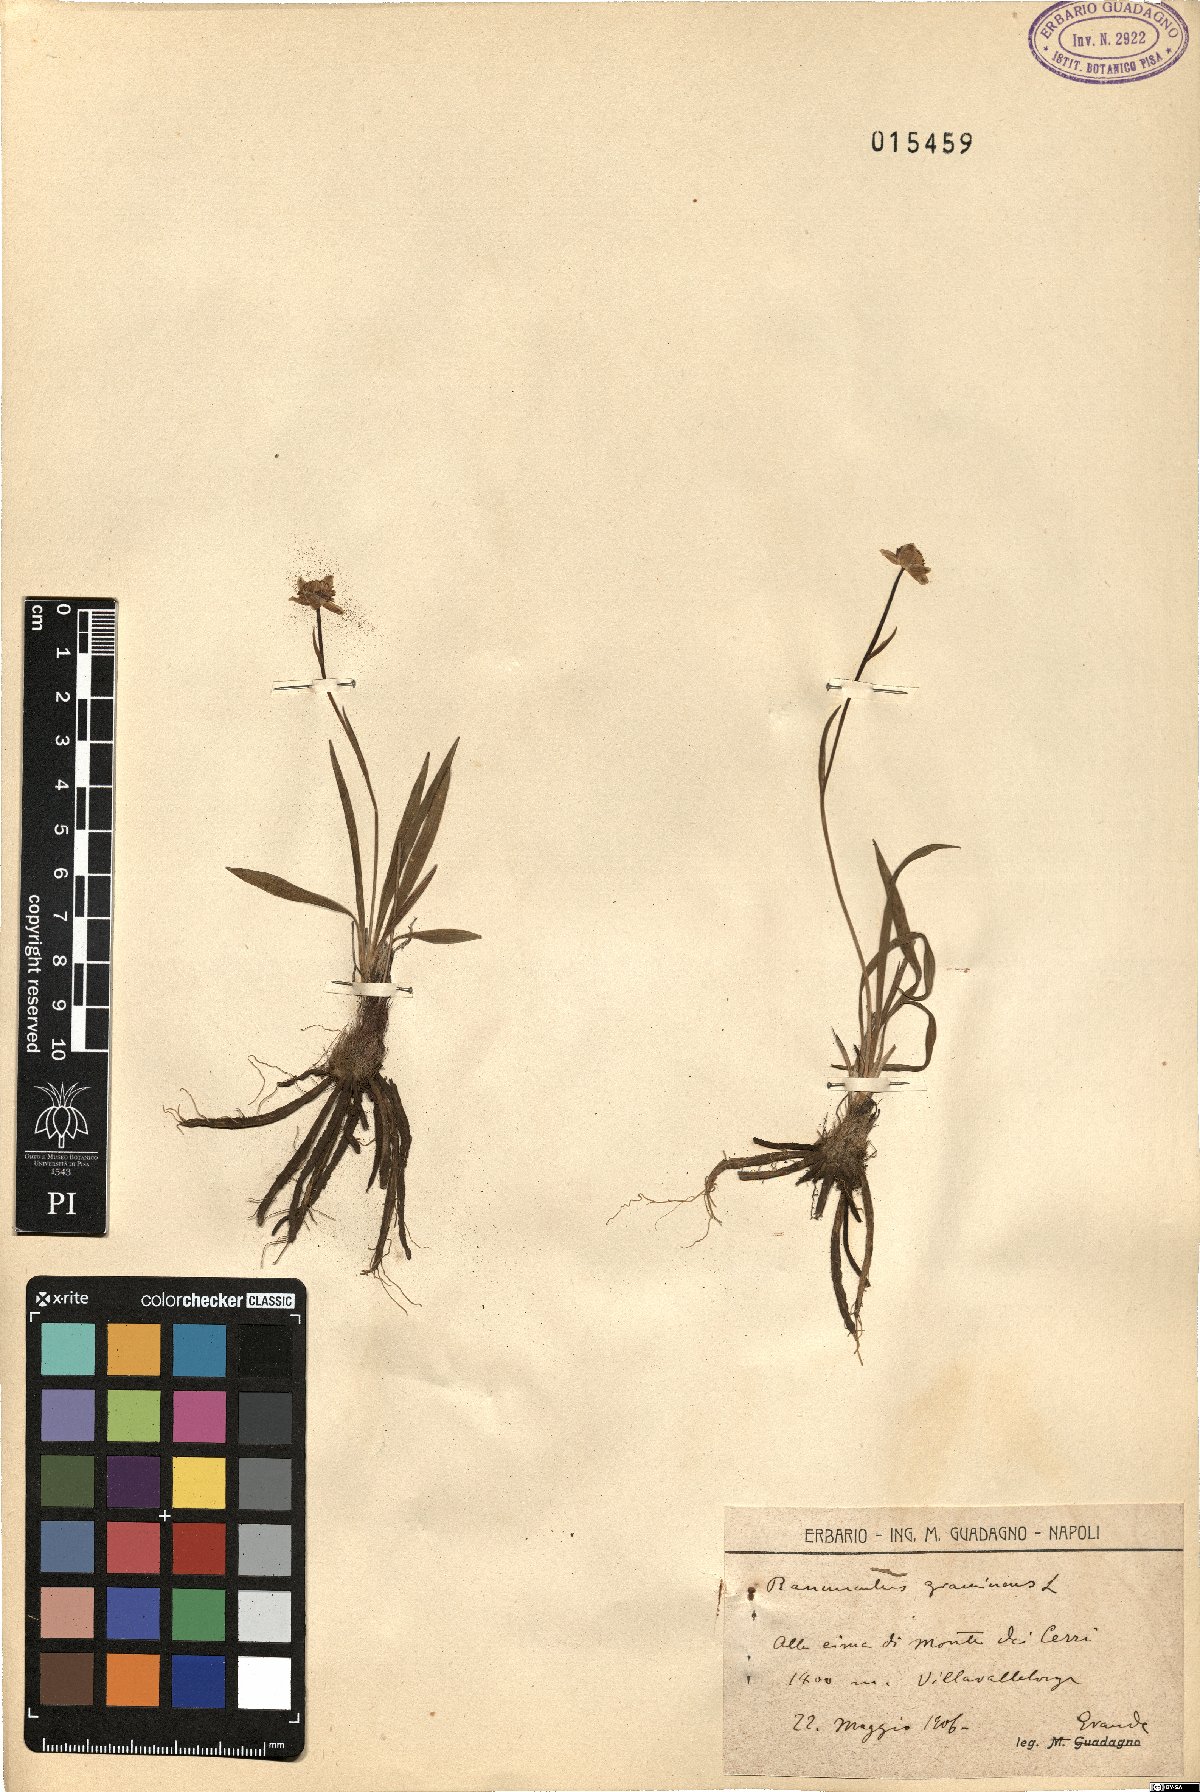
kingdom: Plantae
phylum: Tracheophyta
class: Magnoliopsida
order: Ranunculales
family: Ranunculaceae
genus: Ranunculus
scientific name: Ranunculus gramineus
